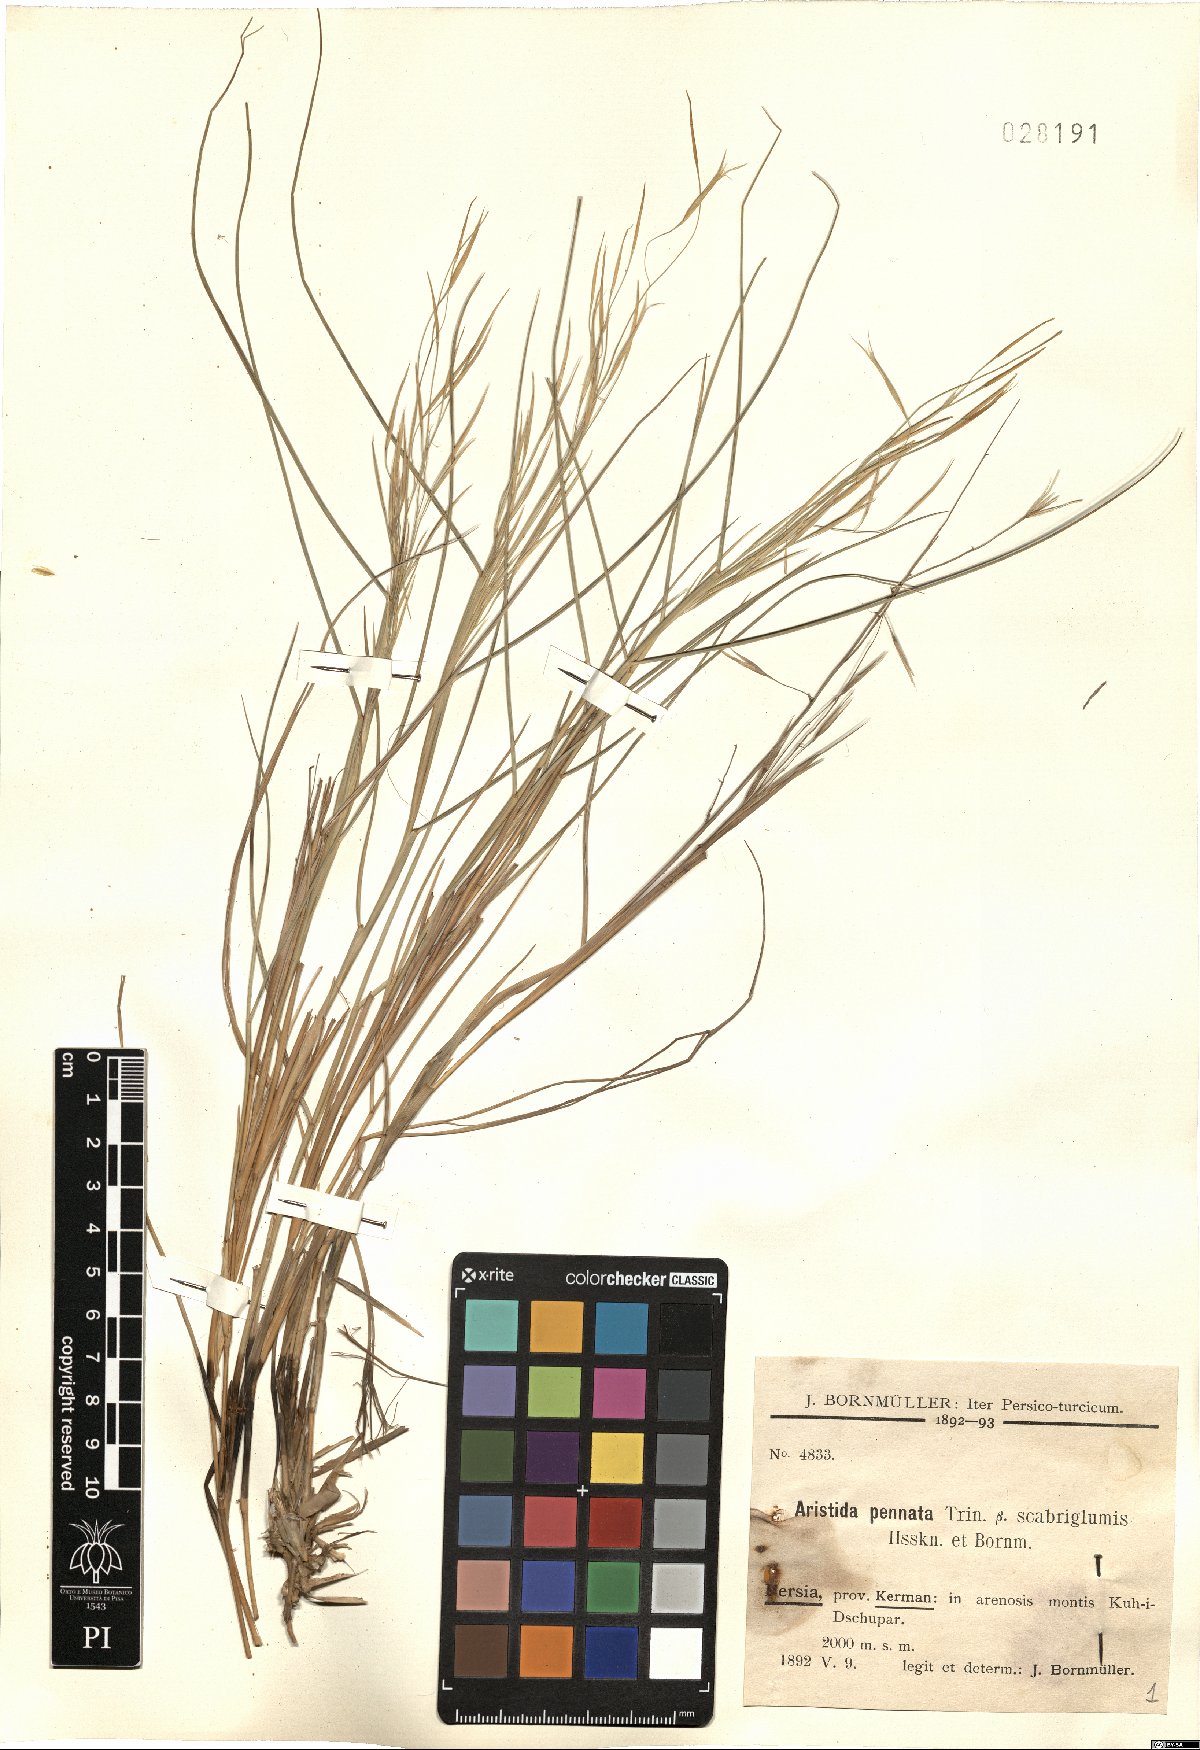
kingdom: Plantae
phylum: Tracheophyta
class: Liliopsida
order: Poales
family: Poaceae
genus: Stipagrostis
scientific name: Stipagrostis pennata
